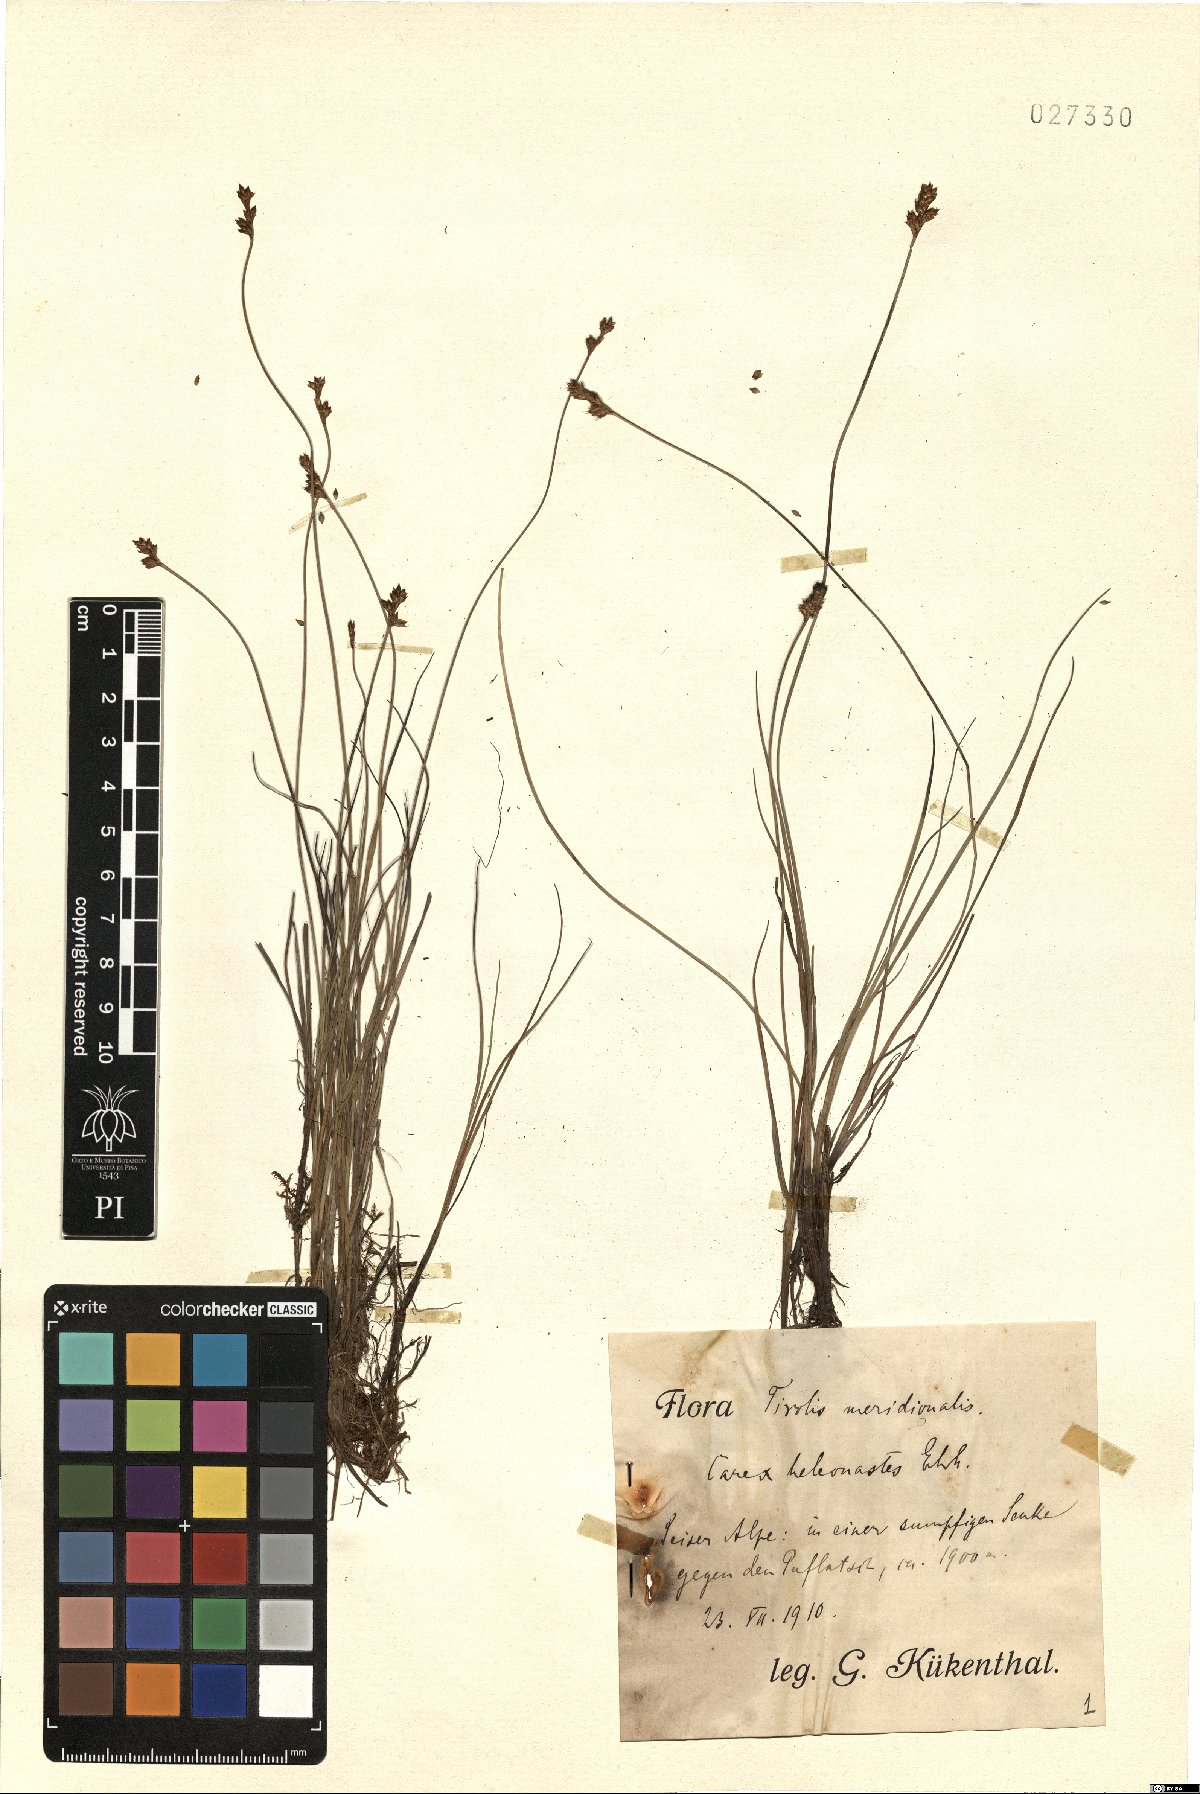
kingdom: Plantae
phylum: Tracheophyta
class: Liliopsida
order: Poales
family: Cyperaceae
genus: Carex
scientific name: Carex heleonastes
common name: Hudson bay sedge
